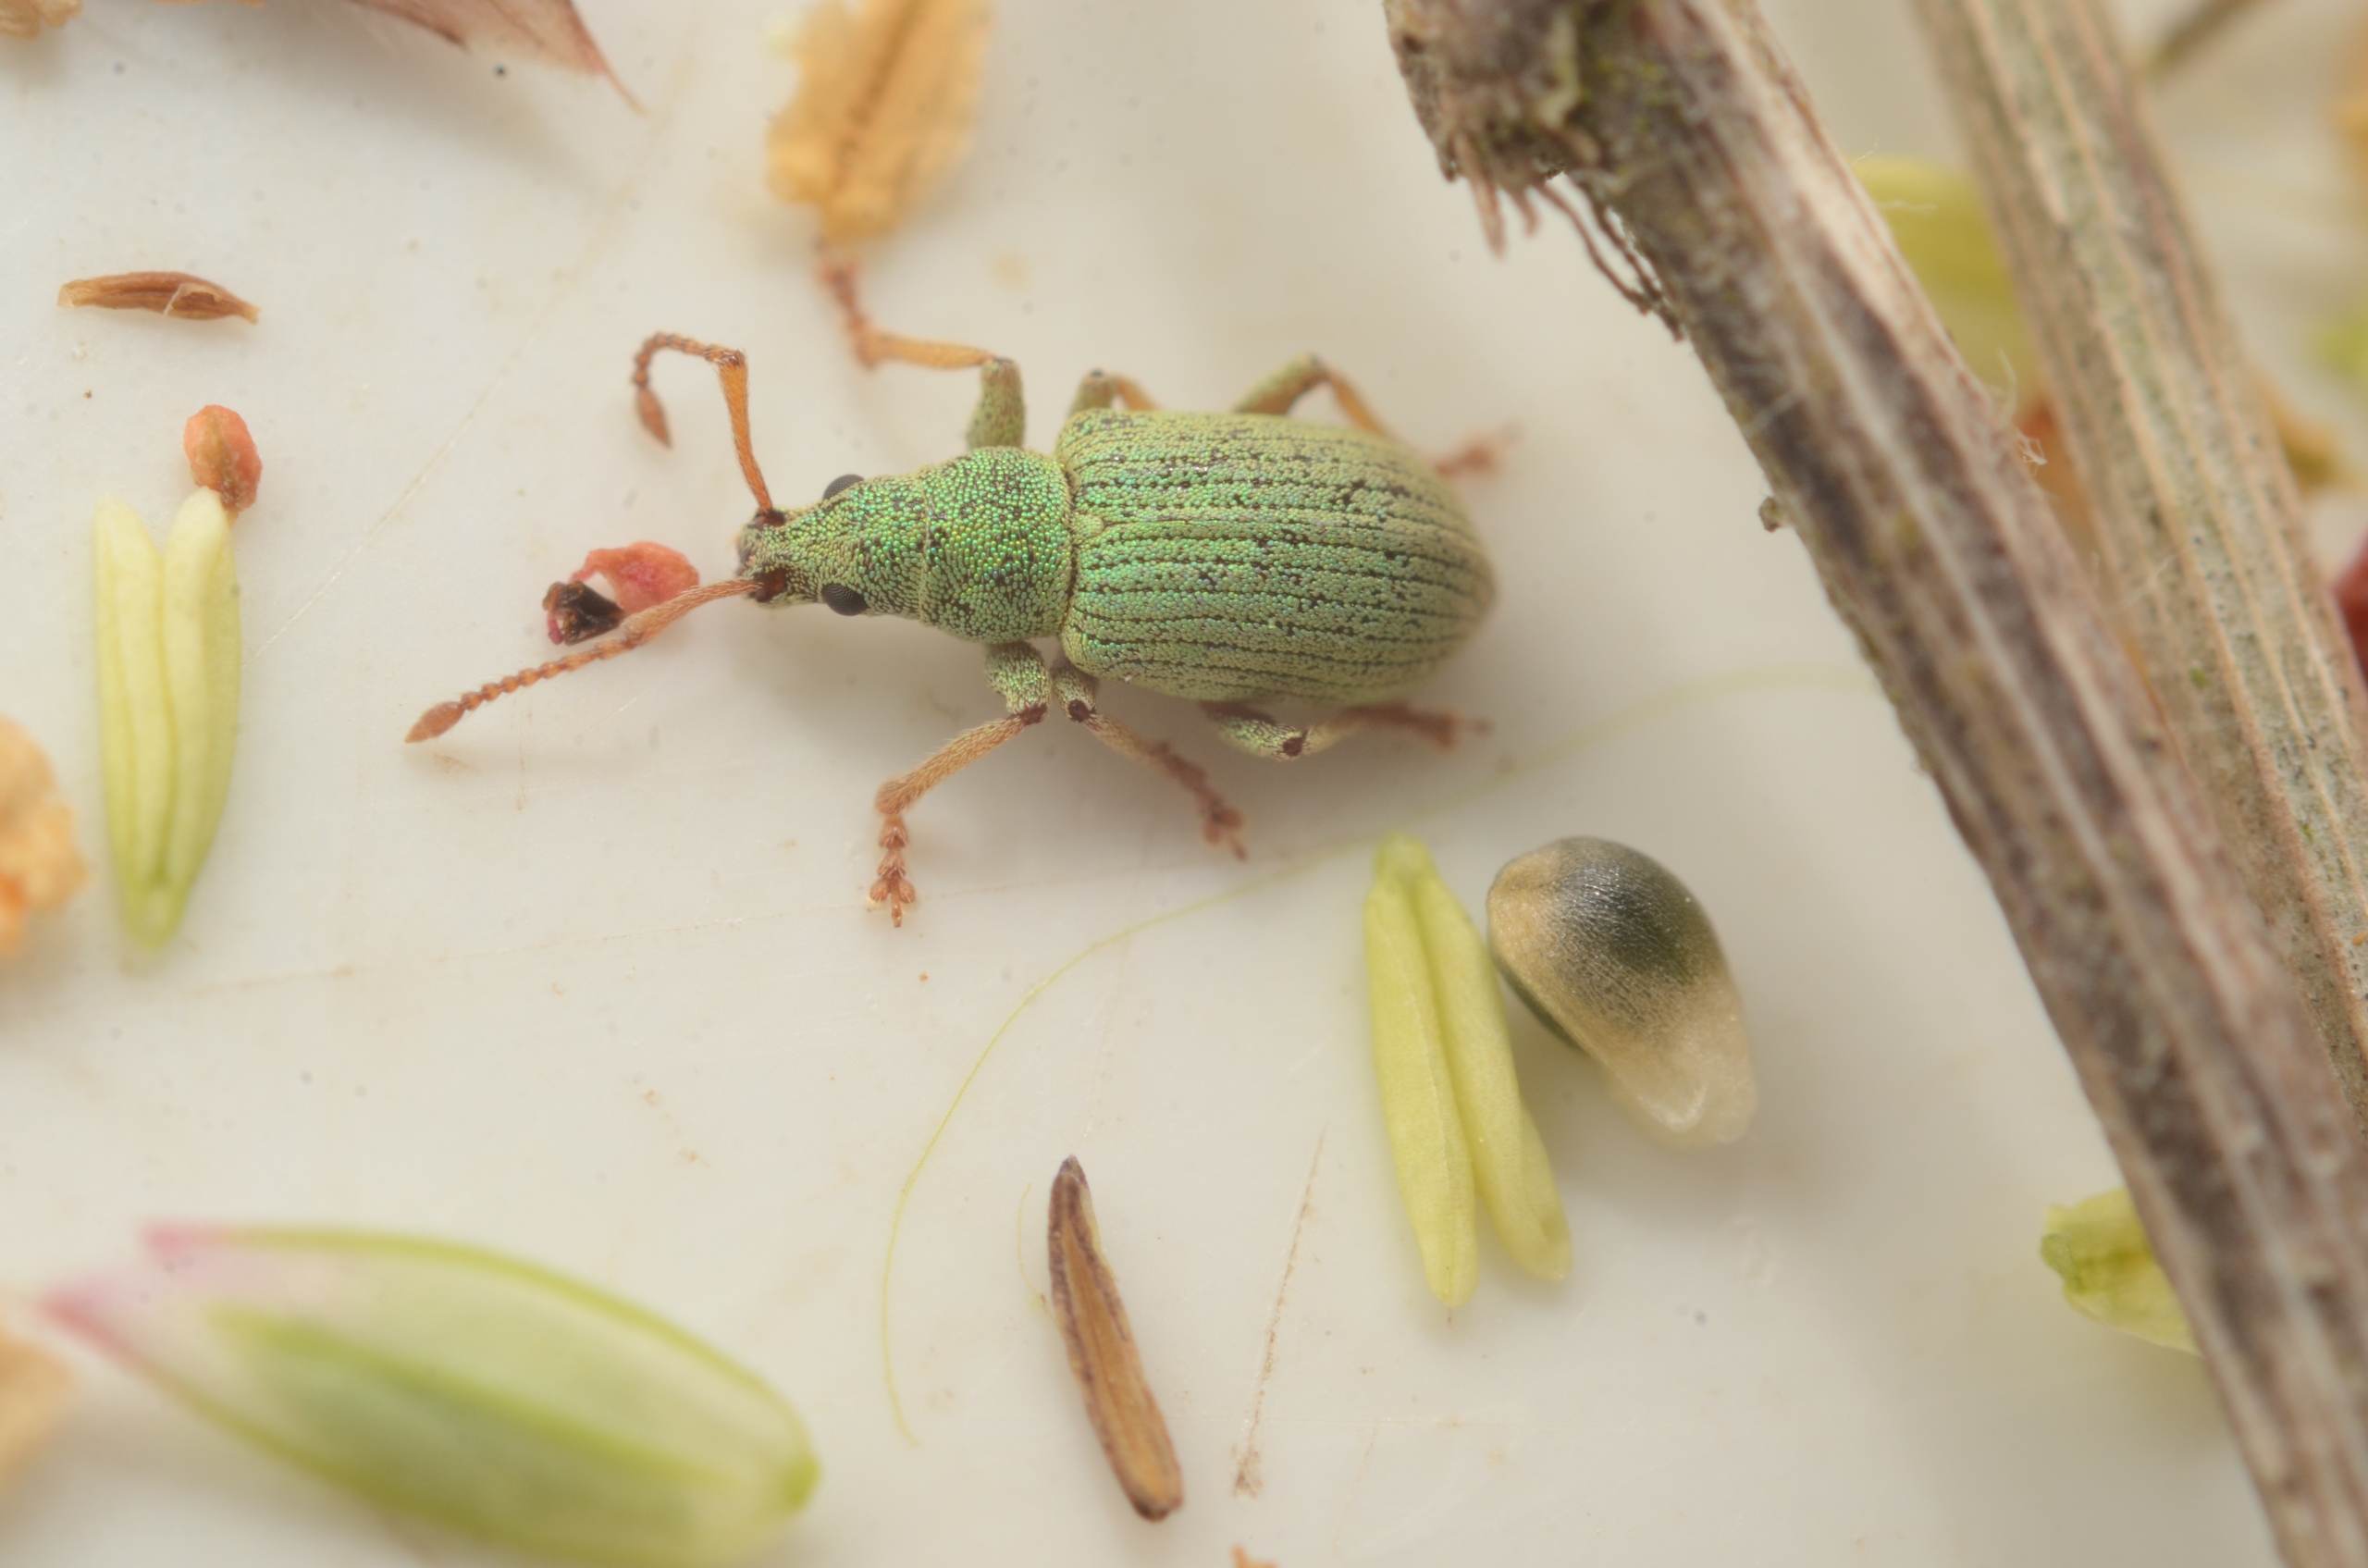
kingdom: Animalia
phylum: Arthropoda
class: Insecta
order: Coleoptera
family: Curculionidae
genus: Phyllobius
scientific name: Phyllobius virideaeris
